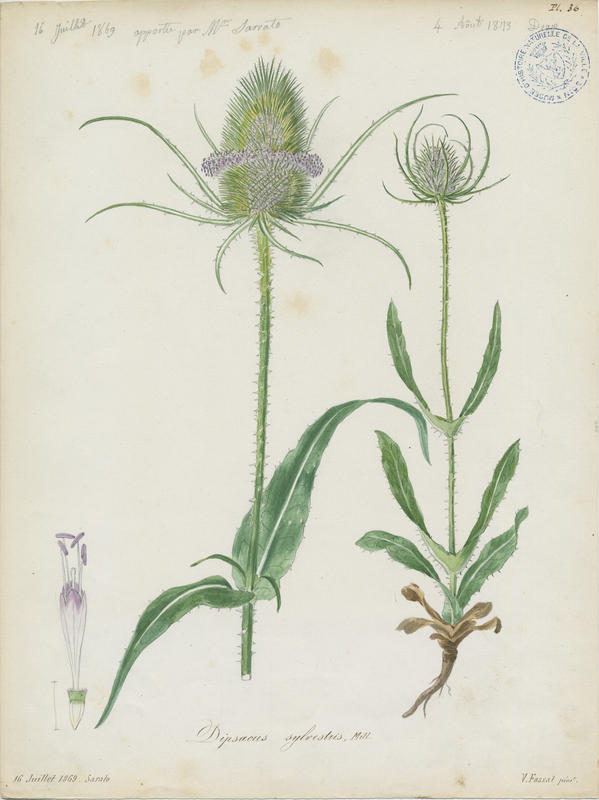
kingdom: Plantae
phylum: Tracheophyta
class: Magnoliopsida
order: Dipsacales
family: Caprifoliaceae
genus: Dipsacus
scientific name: Dipsacus fullonum
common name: Teasel
